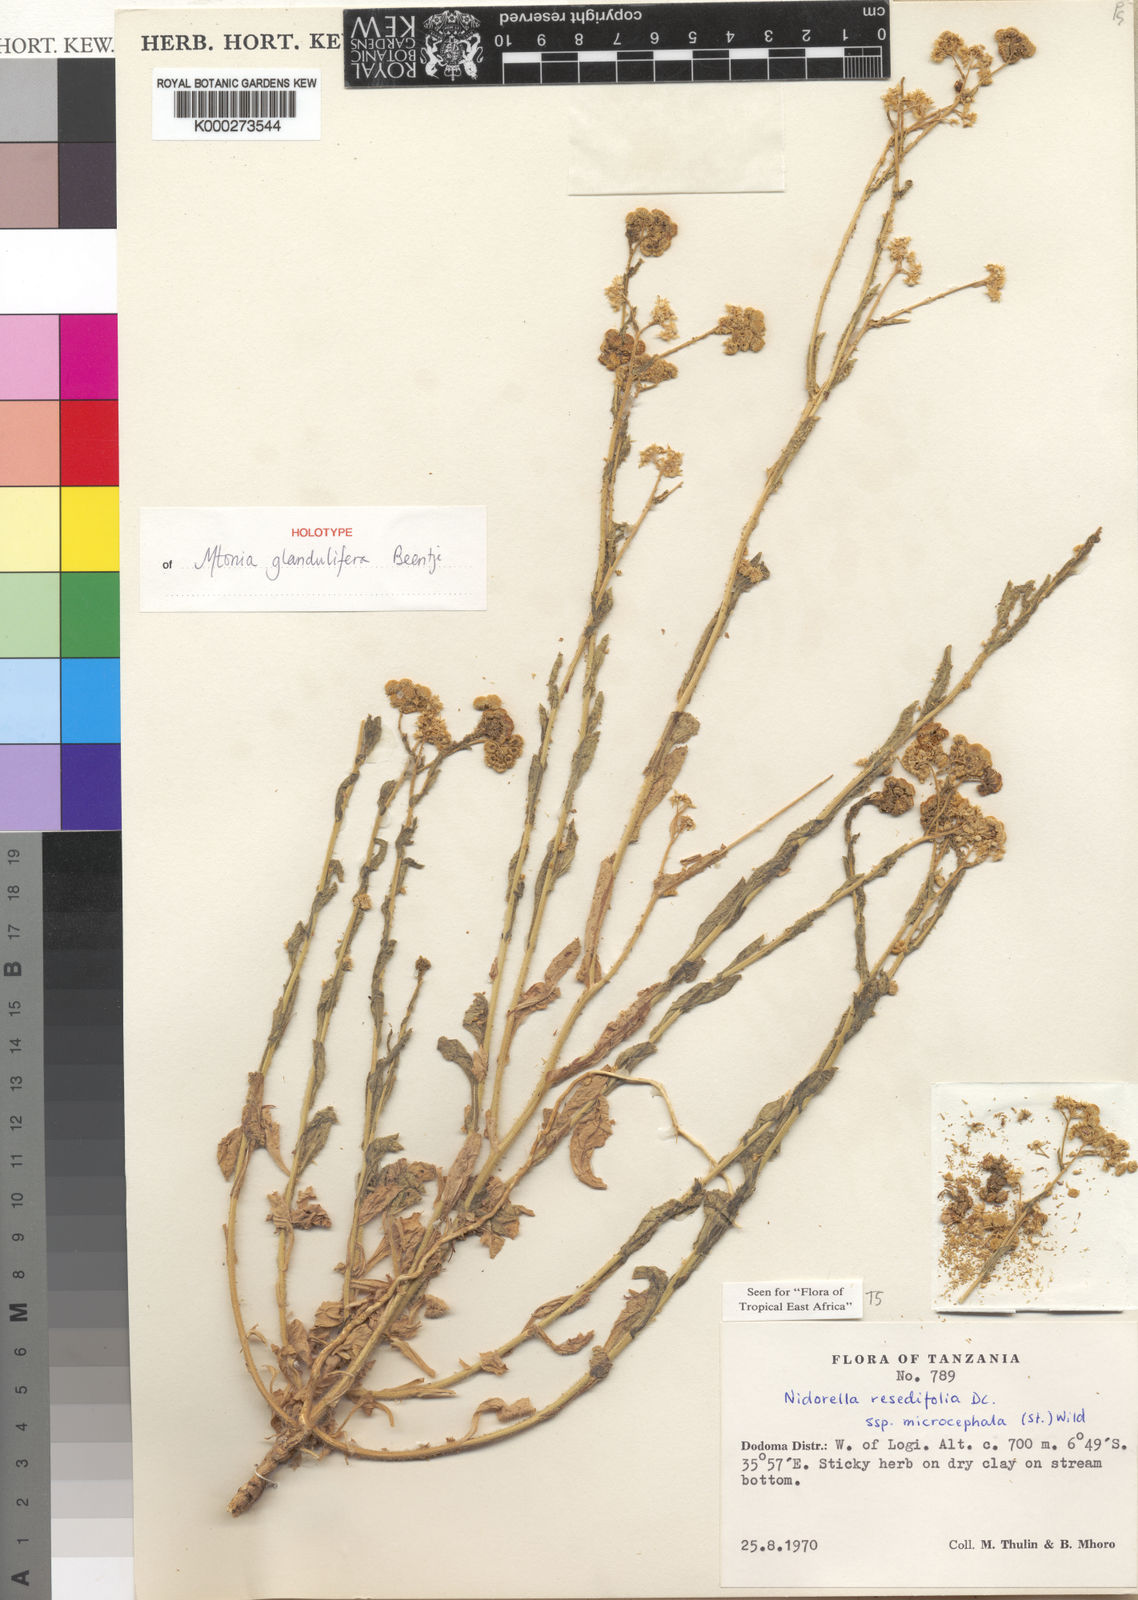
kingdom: Plantae
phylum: Tracheophyta
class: Magnoliopsida
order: Asterales
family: Asteraceae
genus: Mtonia
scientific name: Mtonia glandulifera
